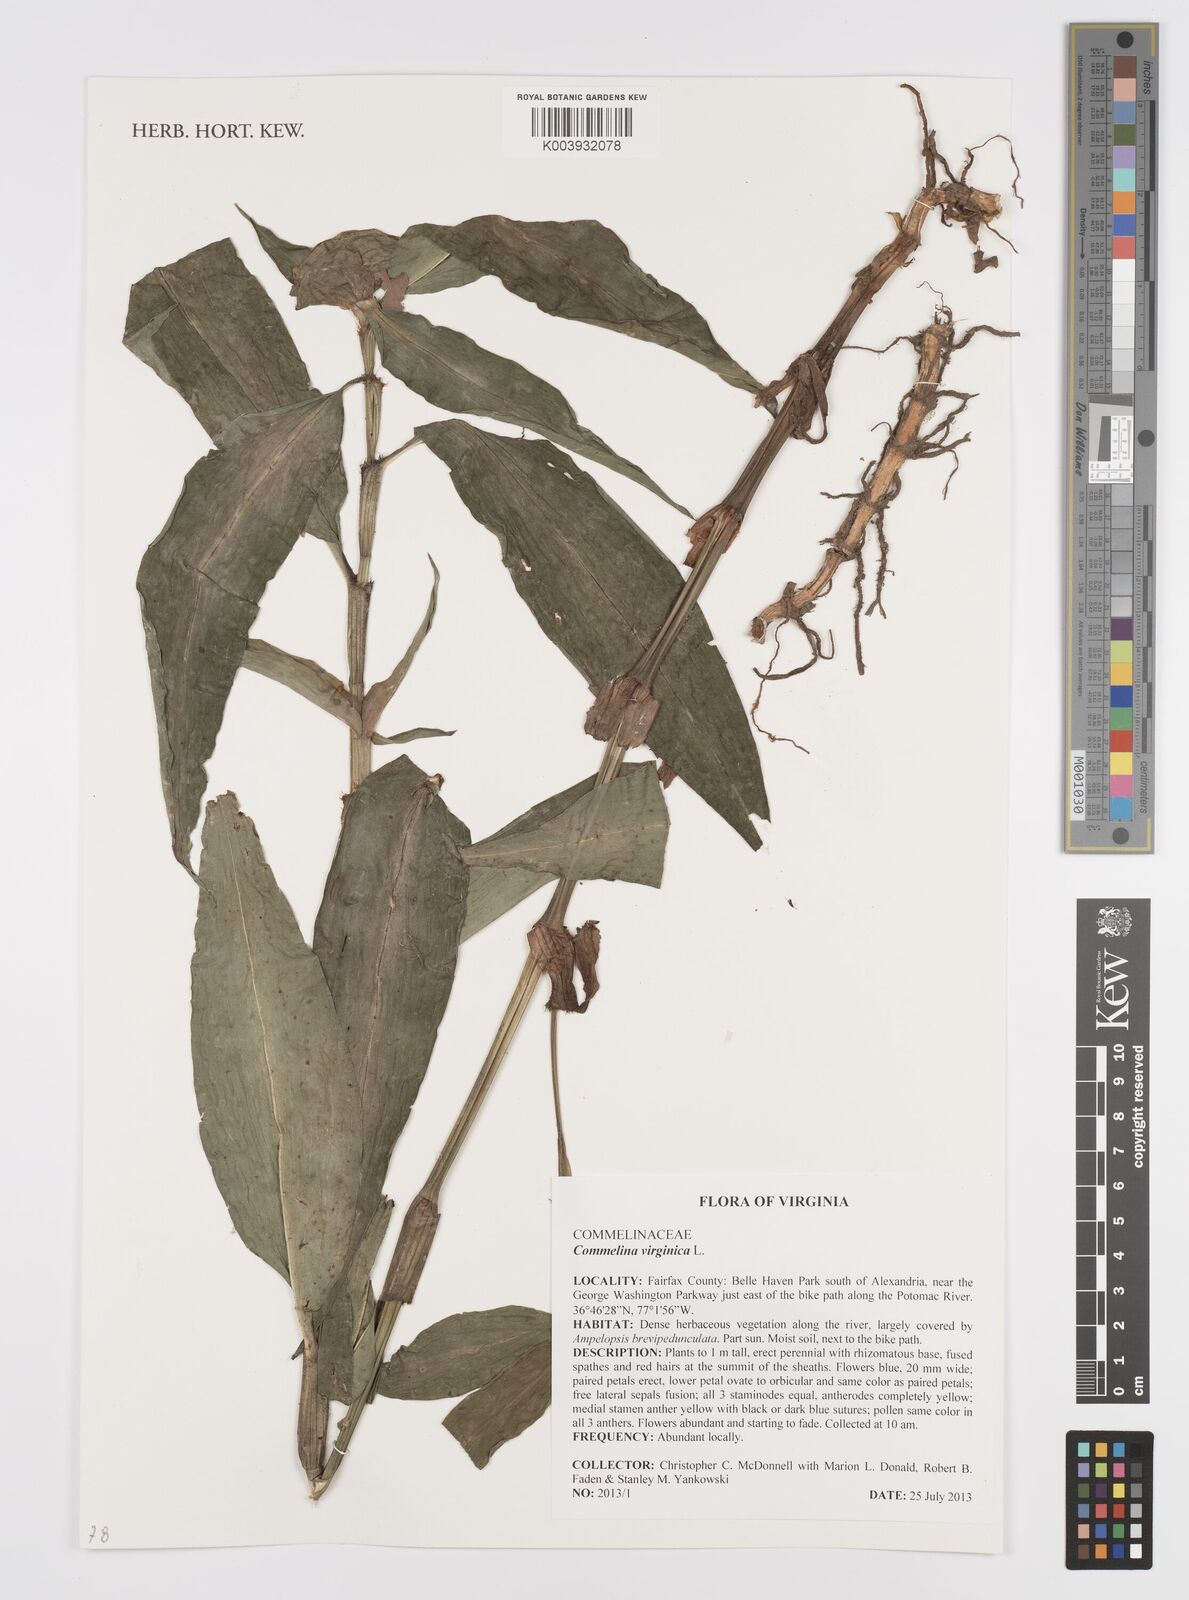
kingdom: Plantae
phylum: Tracheophyta
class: Liliopsida
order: Commelinales
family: Commelinaceae
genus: Commelina
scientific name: Commelina virginica
